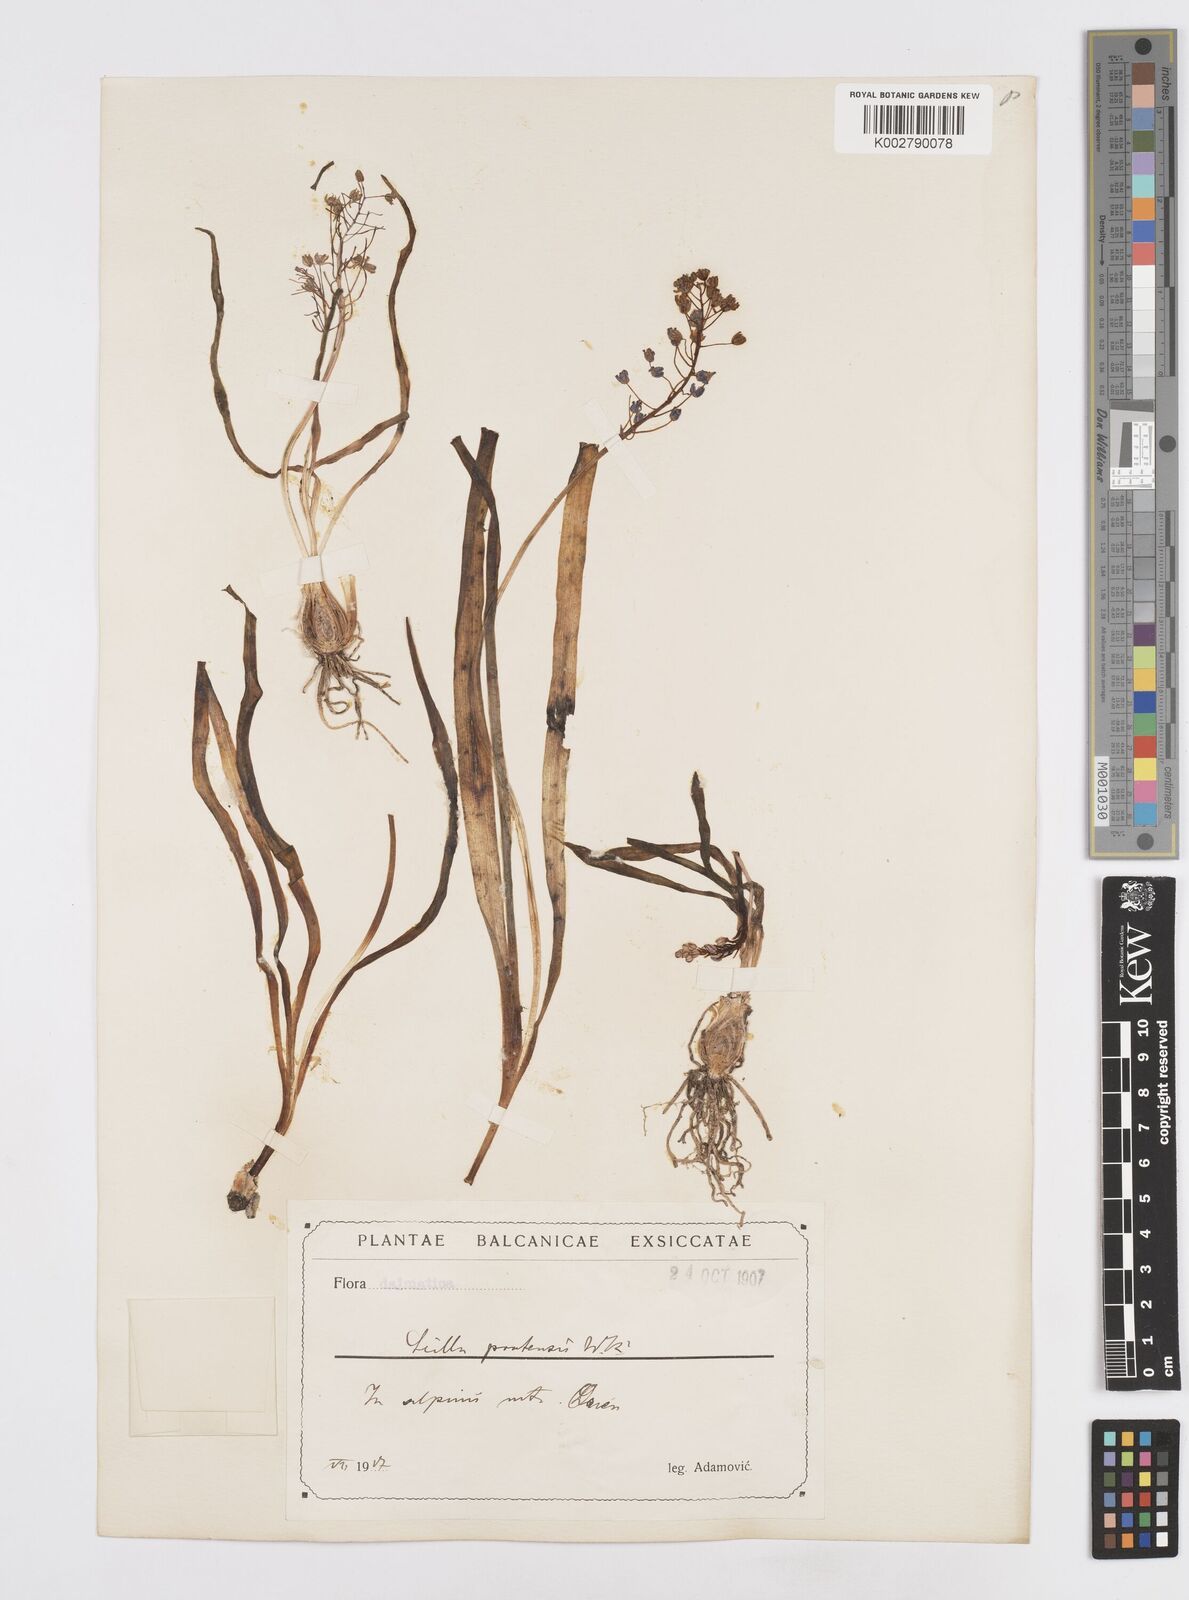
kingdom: Plantae
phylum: Tracheophyta
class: Liliopsida
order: Asparagales
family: Asparagaceae
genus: Scilla
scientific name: Scilla litardierei
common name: Amethyst meadow squill
